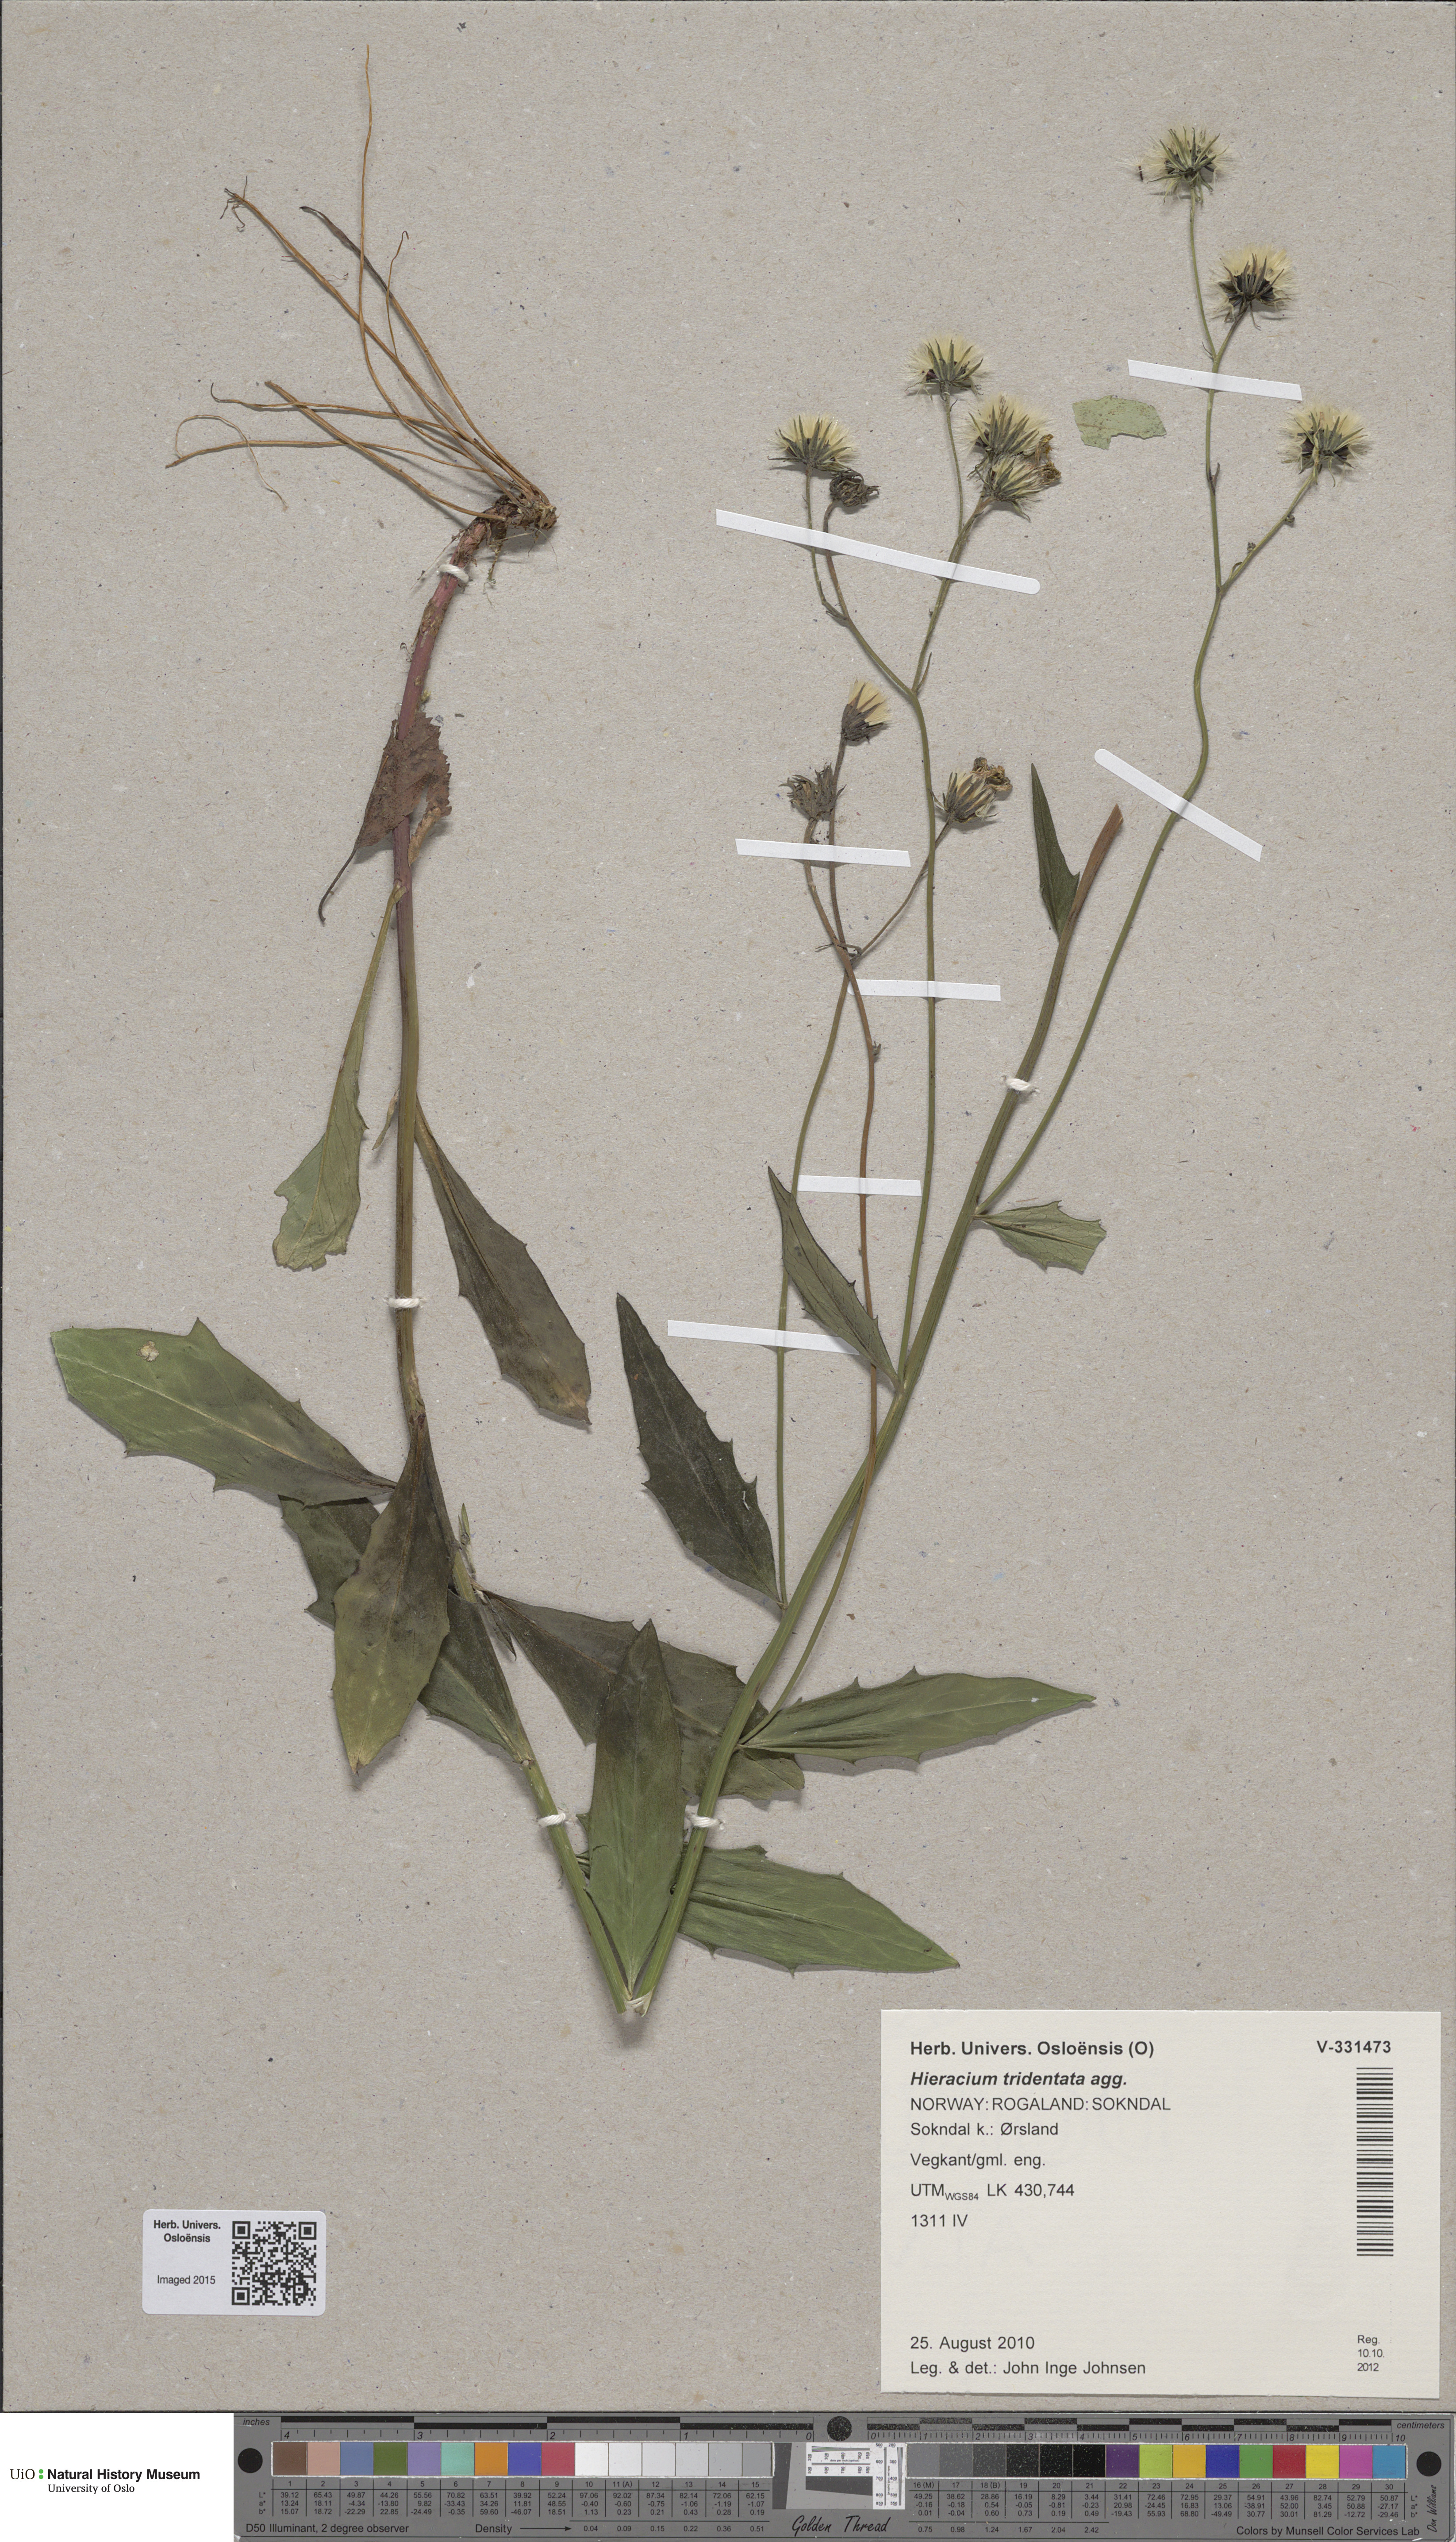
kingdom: Plantae
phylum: Tracheophyta
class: Magnoliopsida
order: Asterales
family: Asteraceae
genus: Hieracium
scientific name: Hieracium tridentatum
